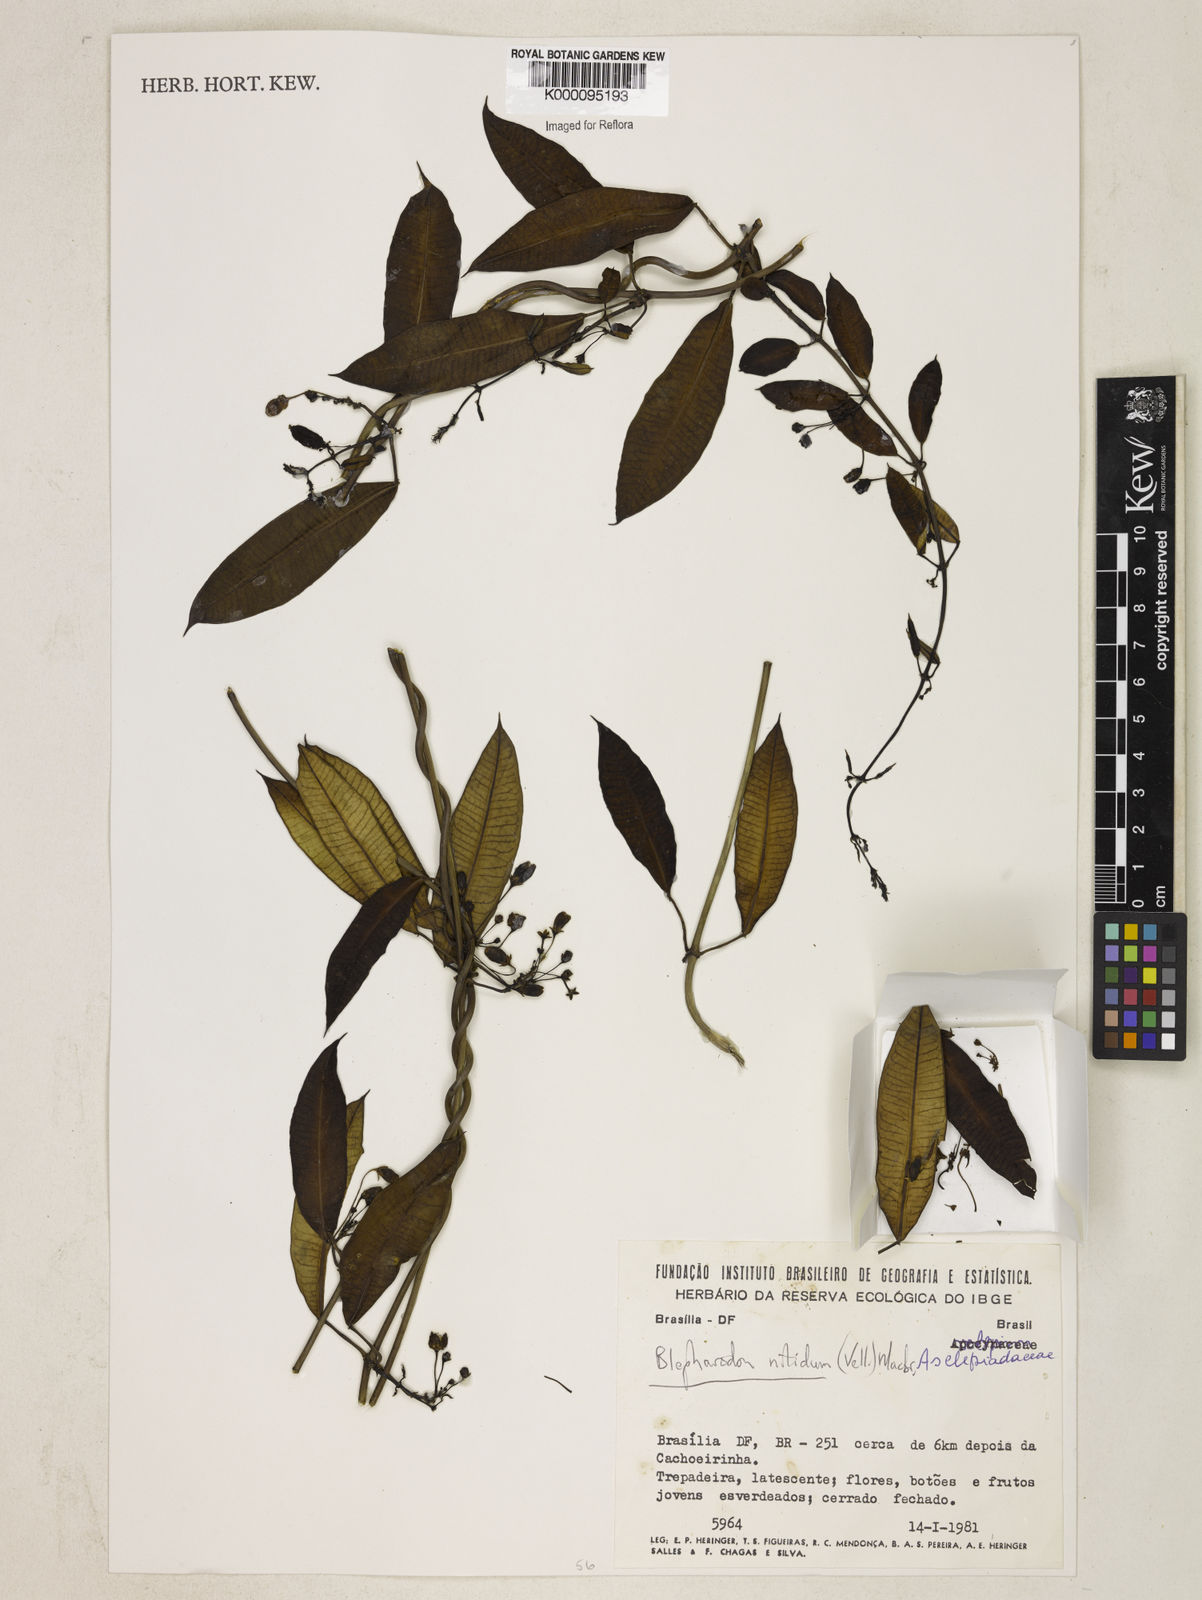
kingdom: Plantae
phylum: Tracheophyta
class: Magnoliopsida
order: Gentianales
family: Apocynaceae
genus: Blepharodon
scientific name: Blepharodon pictum
